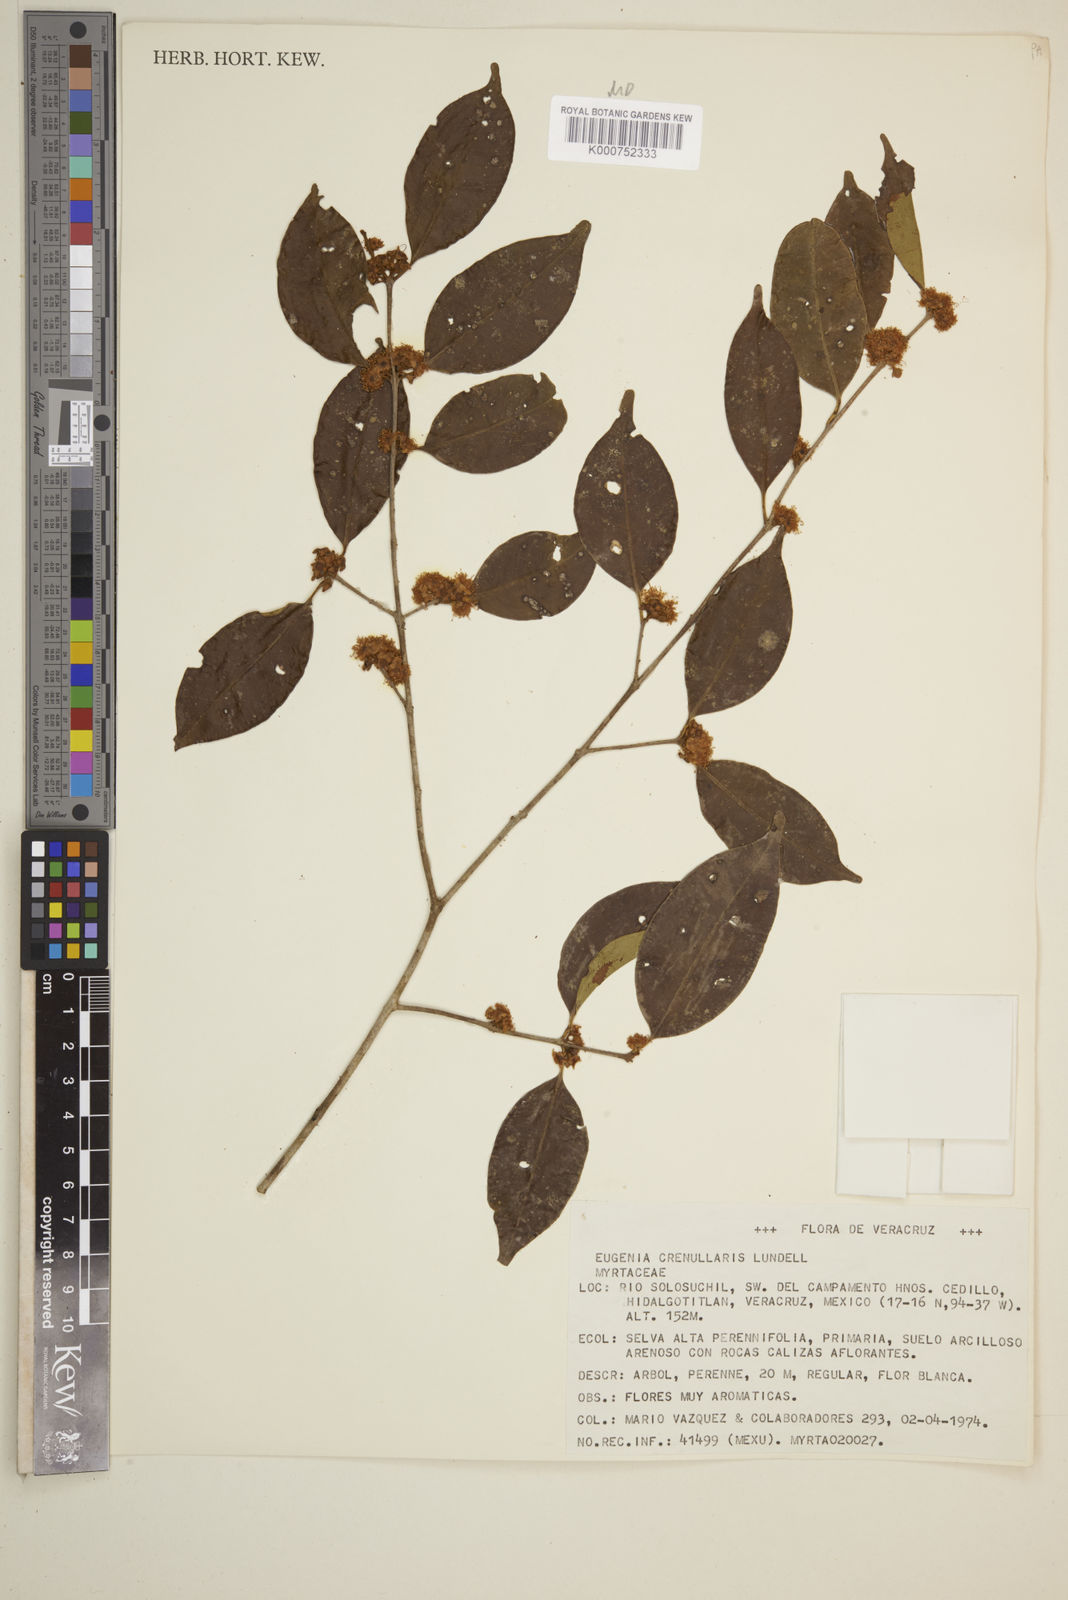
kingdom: Plantae
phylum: Tracheophyta
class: Magnoliopsida
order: Myrtales
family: Myrtaceae
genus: Eugenia
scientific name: Eugenia crenularis
